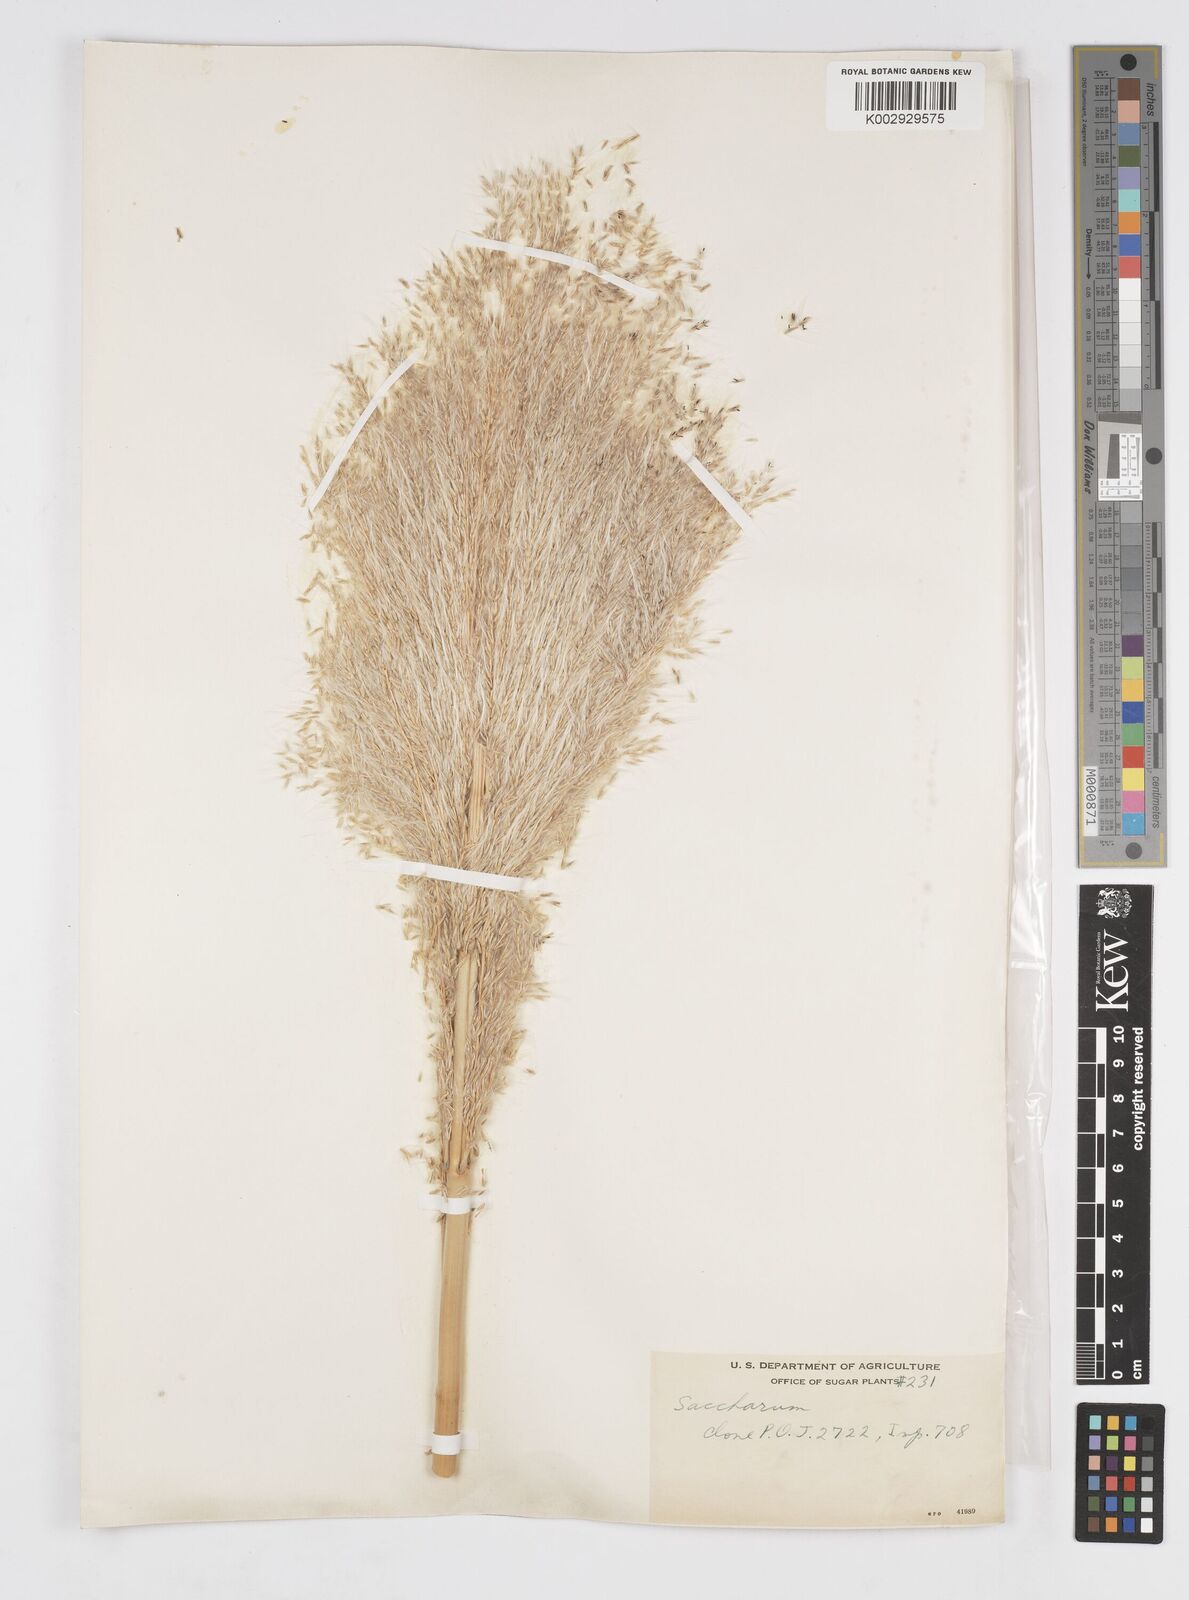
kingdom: Plantae
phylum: Tracheophyta
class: Liliopsida
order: Poales
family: Poaceae
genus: Saccharum
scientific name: Saccharum officinarum
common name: Sugarcane
